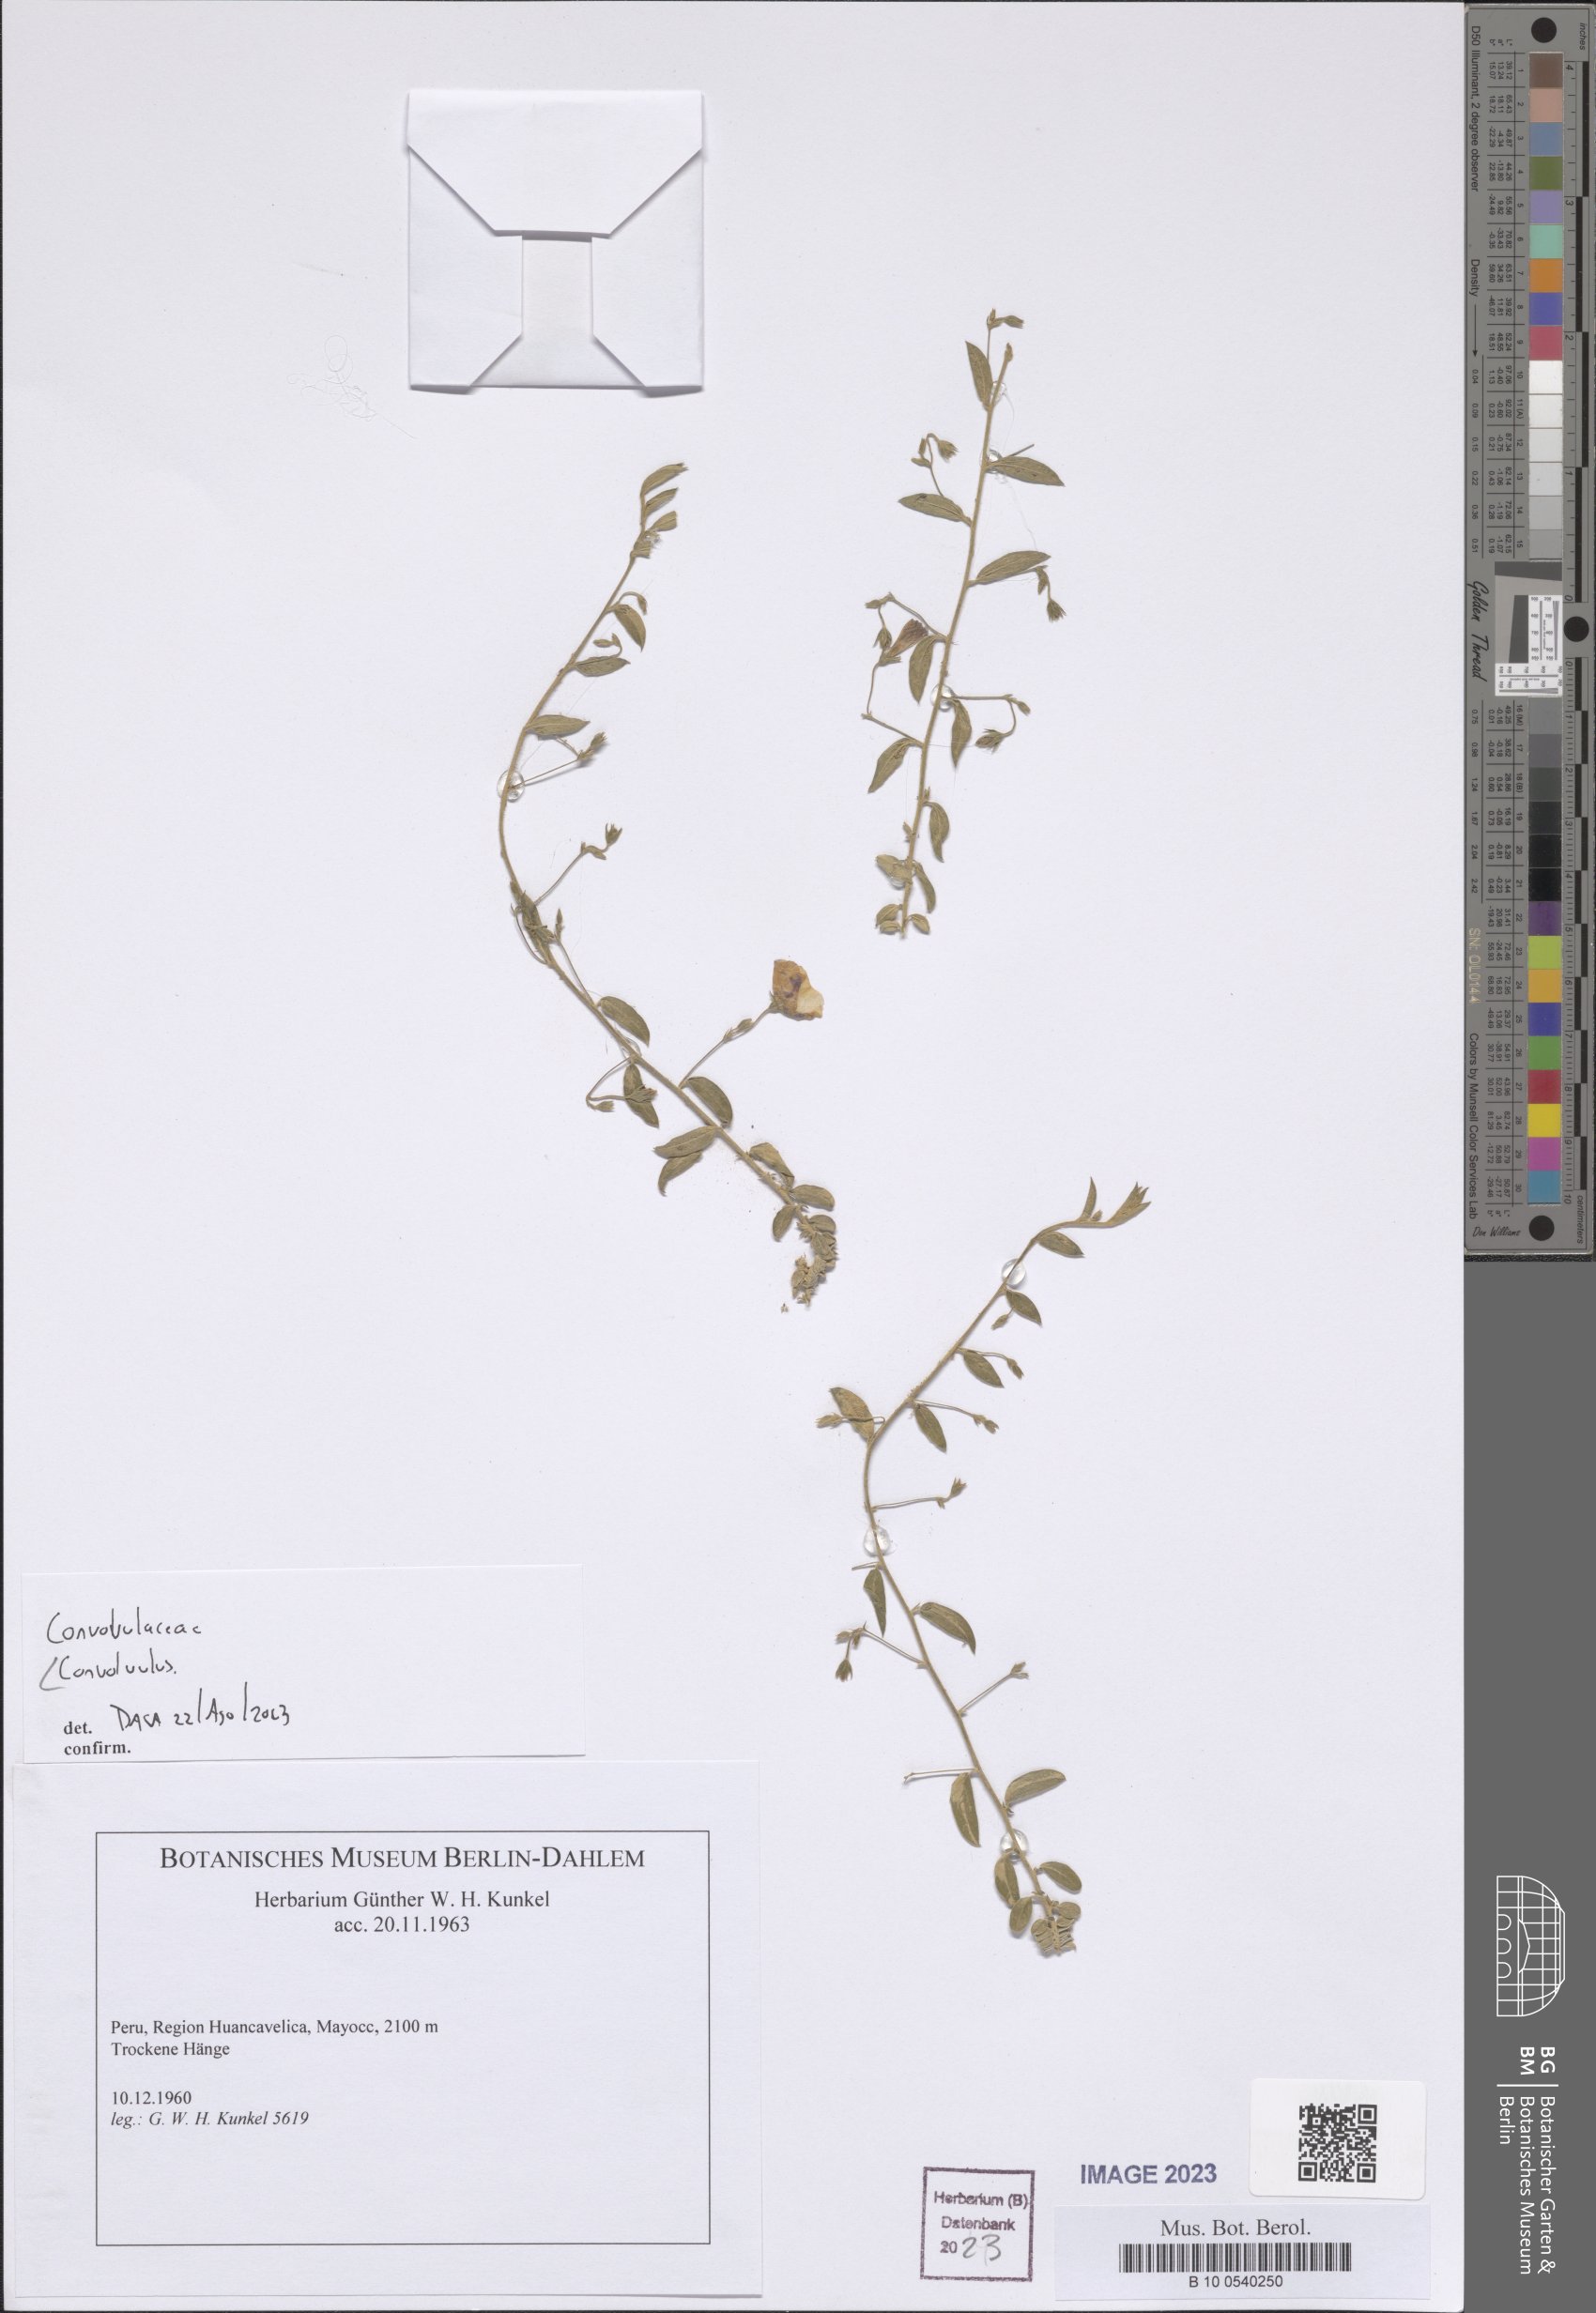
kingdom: Plantae
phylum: Tracheophyta
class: Magnoliopsida
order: Solanales
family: Convolvulaceae
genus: Convolvulus
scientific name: Convolvulus
